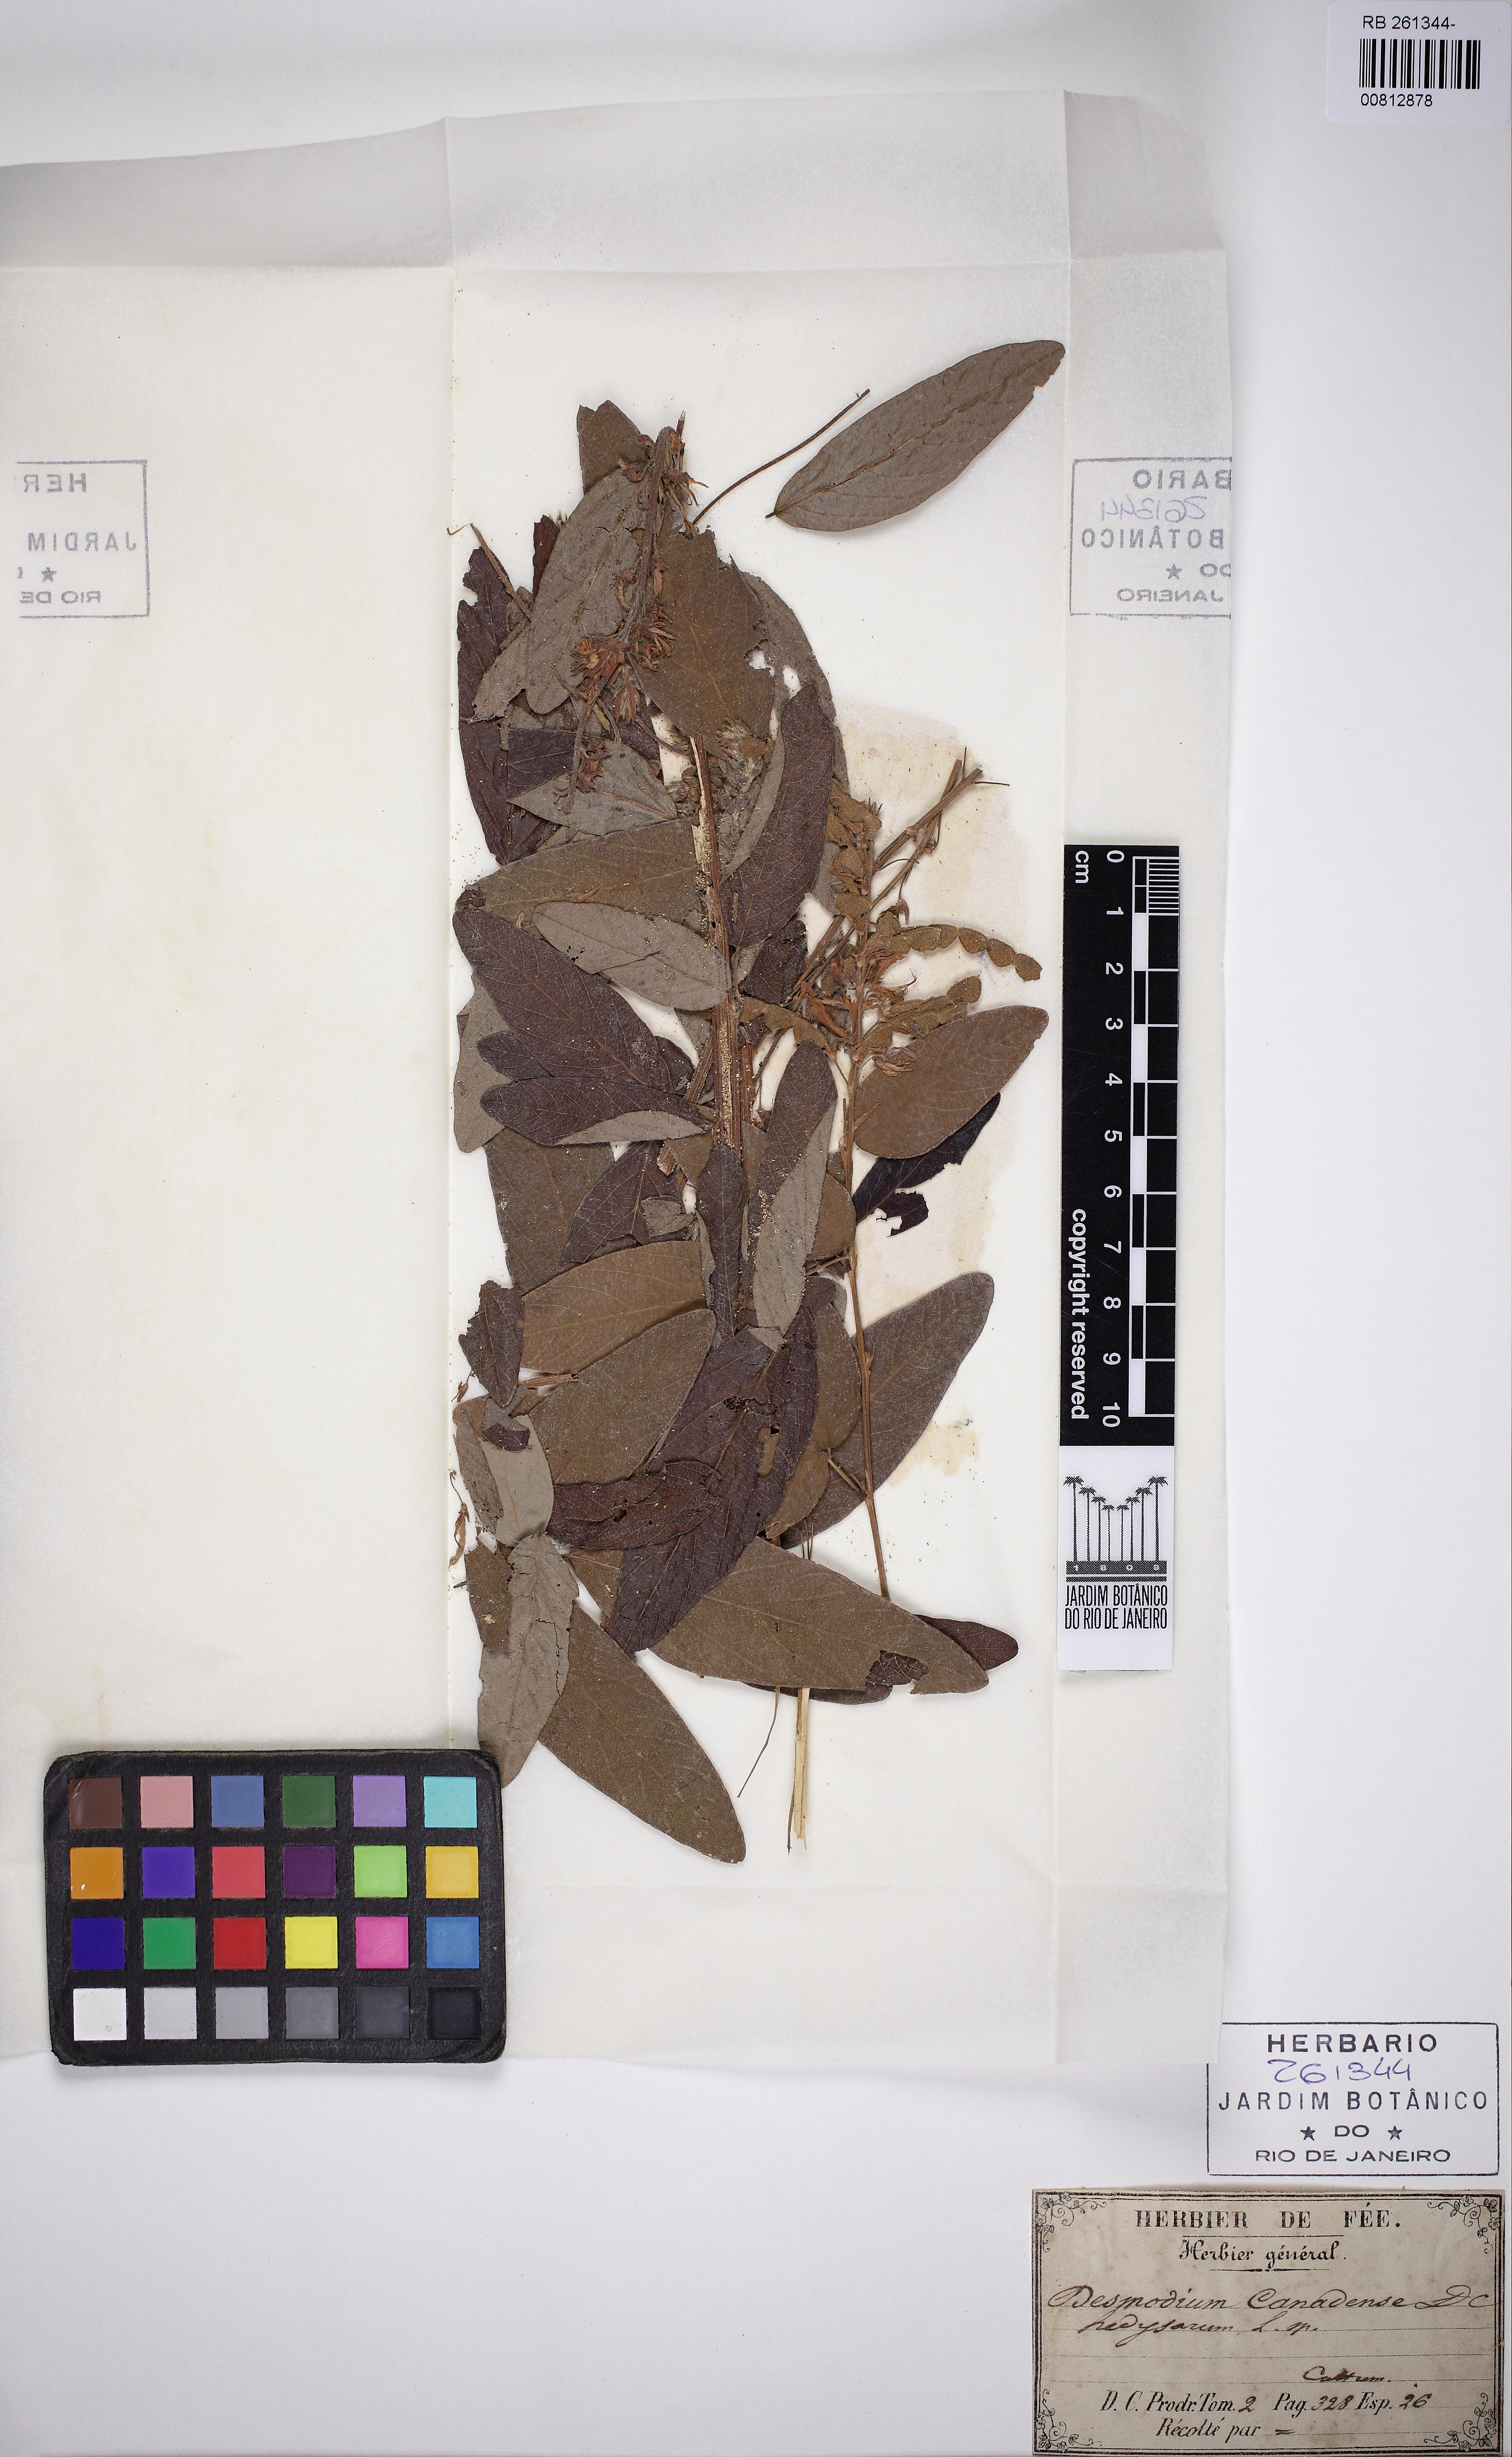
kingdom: Plantae
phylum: Tracheophyta
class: Magnoliopsida
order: Fabales
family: Fabaceae
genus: Desmodium
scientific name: Desmodium canadense
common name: Canada tick-trefoil
